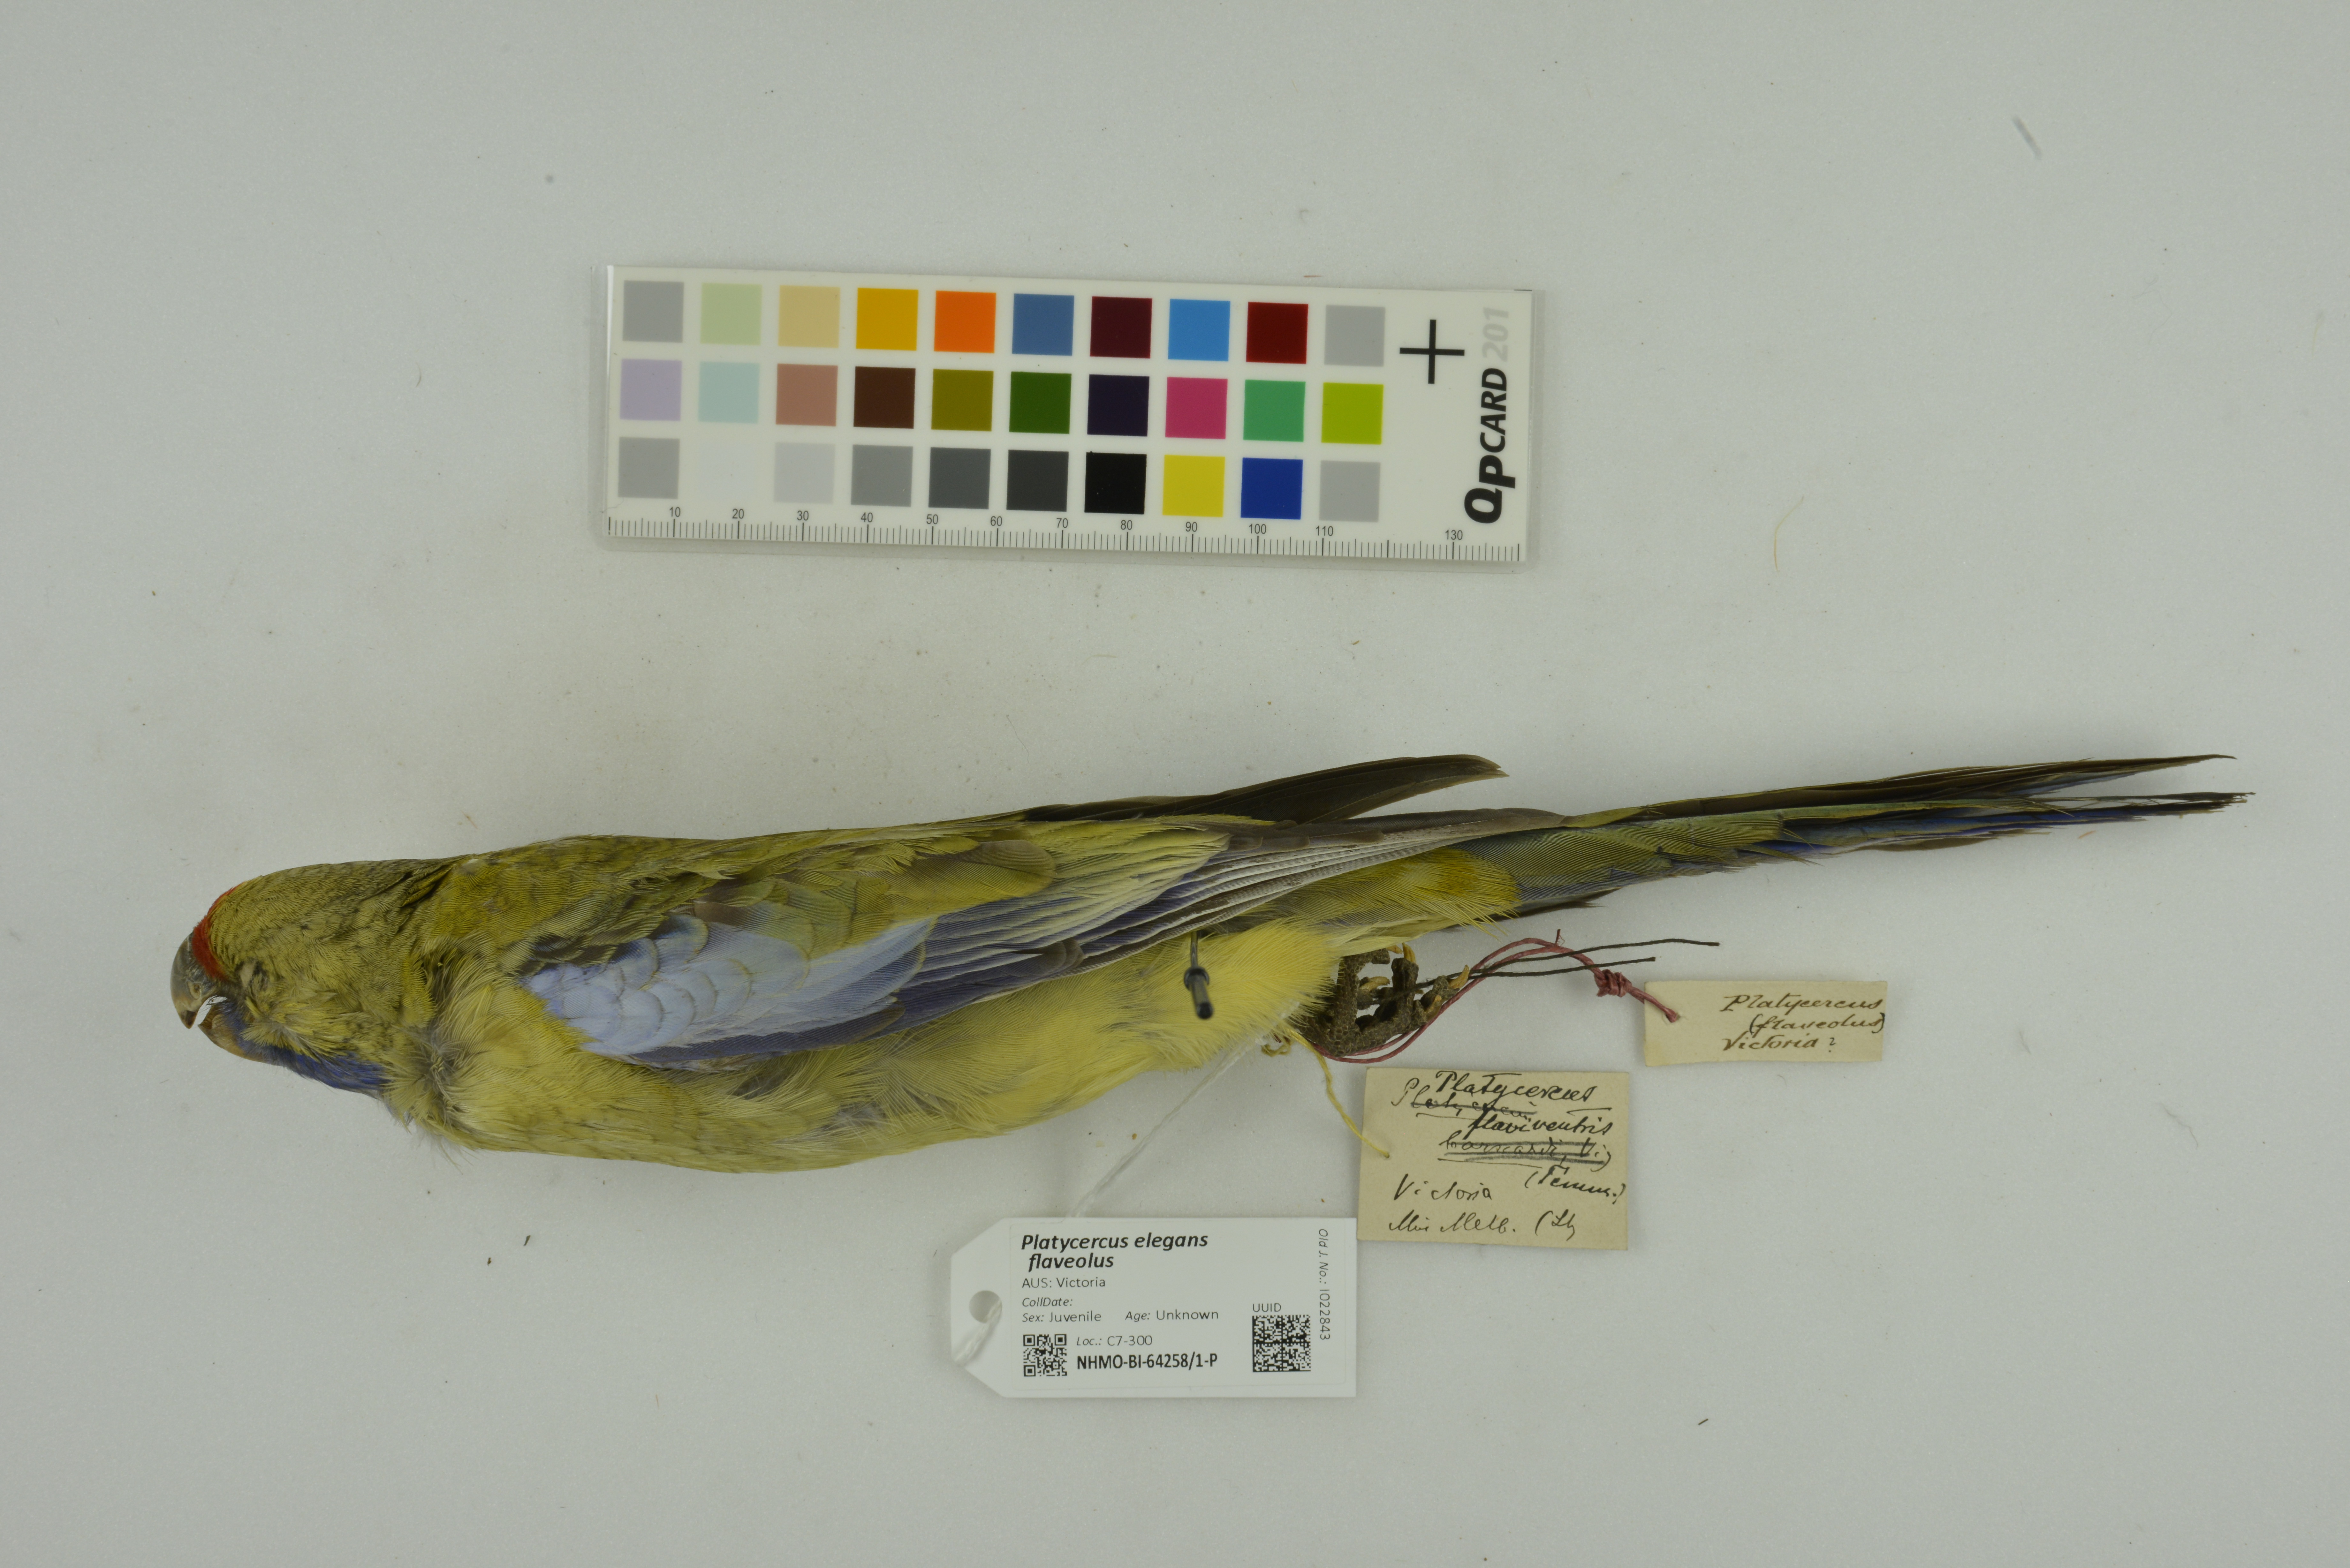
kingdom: Animalia
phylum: Chordata
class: Aves
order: Psittaciformes
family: Psittacidae
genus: Platycercus
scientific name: Platycercus elegans
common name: Crimson rosella
